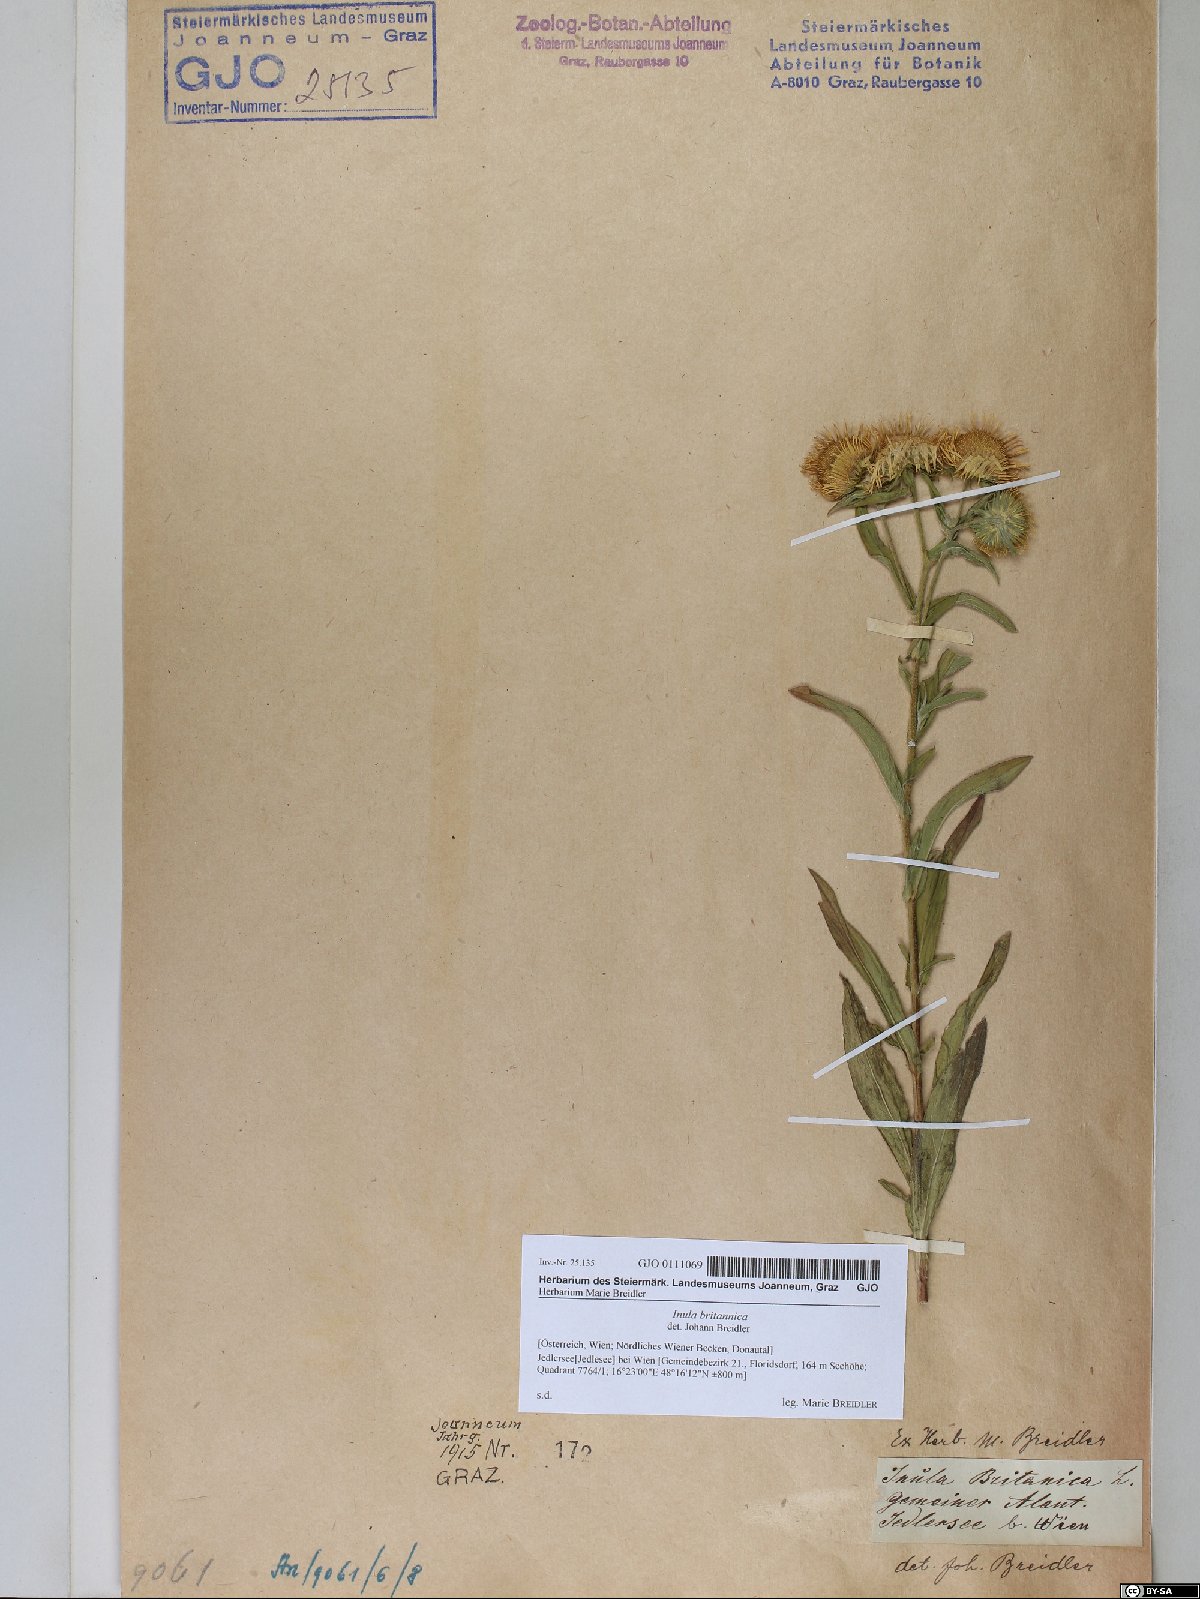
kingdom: Plantae
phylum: Tracheophyta
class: Magnoliopsida
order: Asterales
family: Asteraceae
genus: Pentanema
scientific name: Pentanema britannicum
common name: British elecampane
